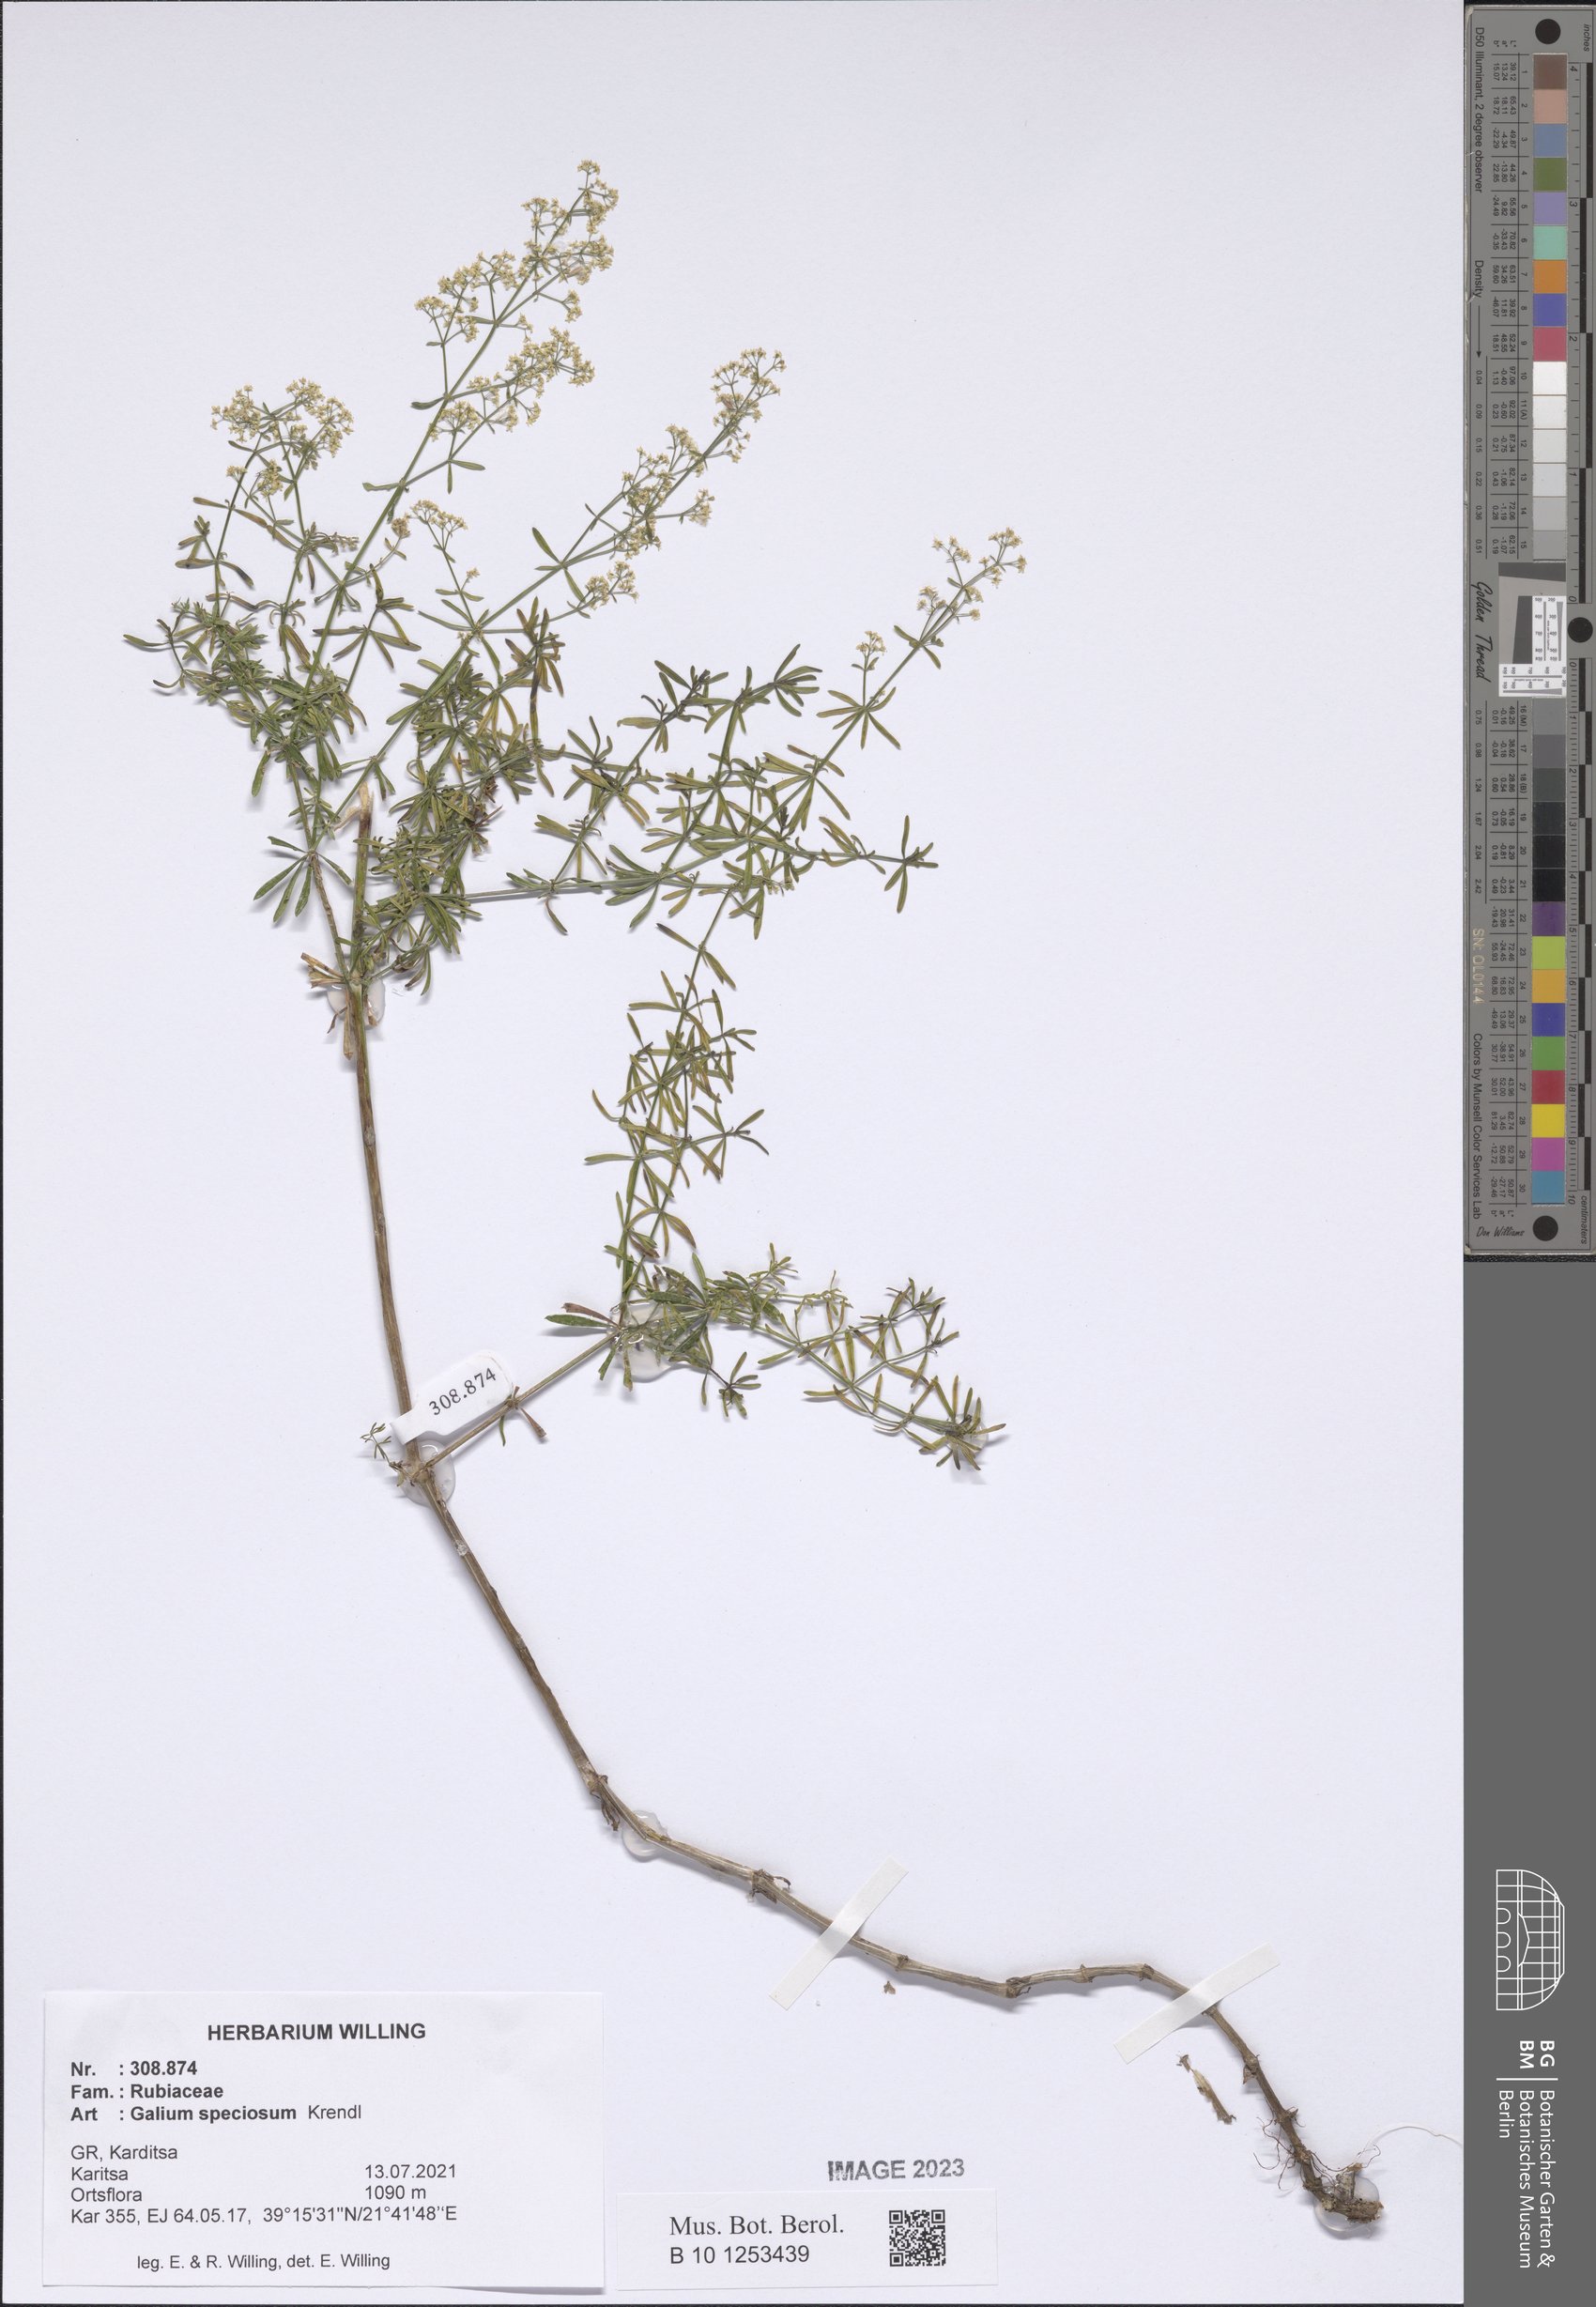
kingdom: Plantae
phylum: Tracheophyta
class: Magnoliopsida
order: Gentianales
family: Rubiaceae
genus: Galium
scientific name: Galium speciosum
